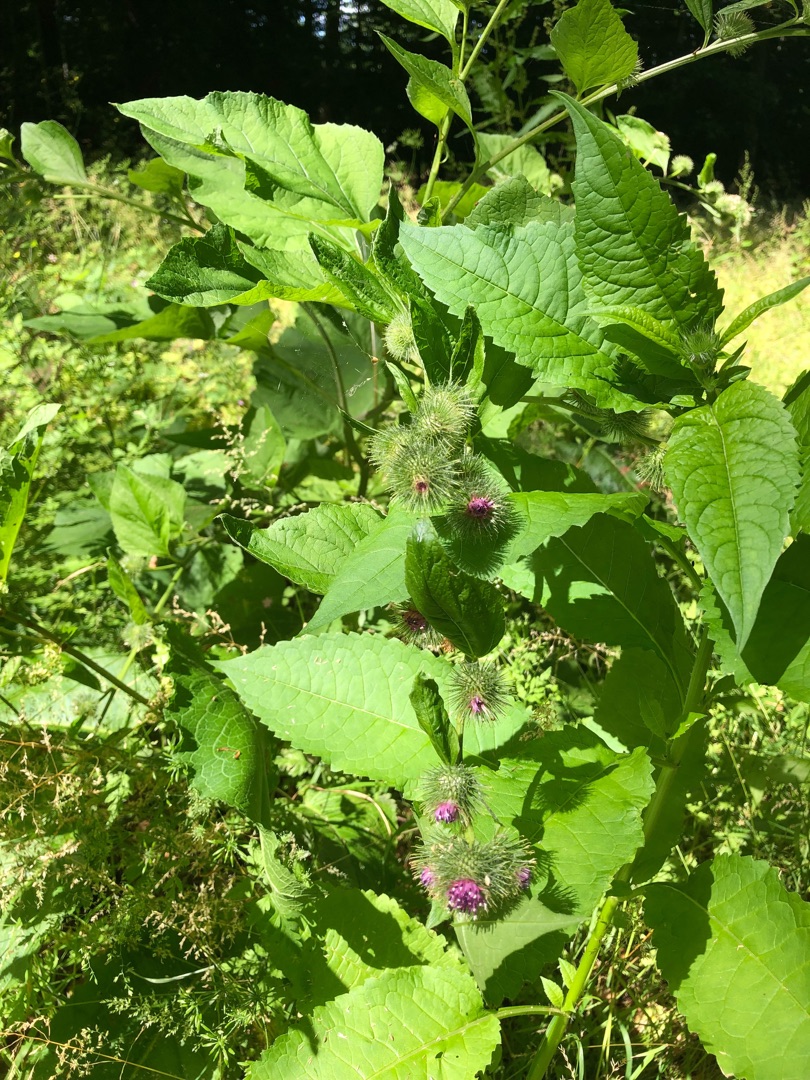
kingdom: Plantae
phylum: Tracheophyta
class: Magnoliopsida
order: Asterales
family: Asteraceae
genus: Arctium
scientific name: Arctium nemorosum
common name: Skov-burre
